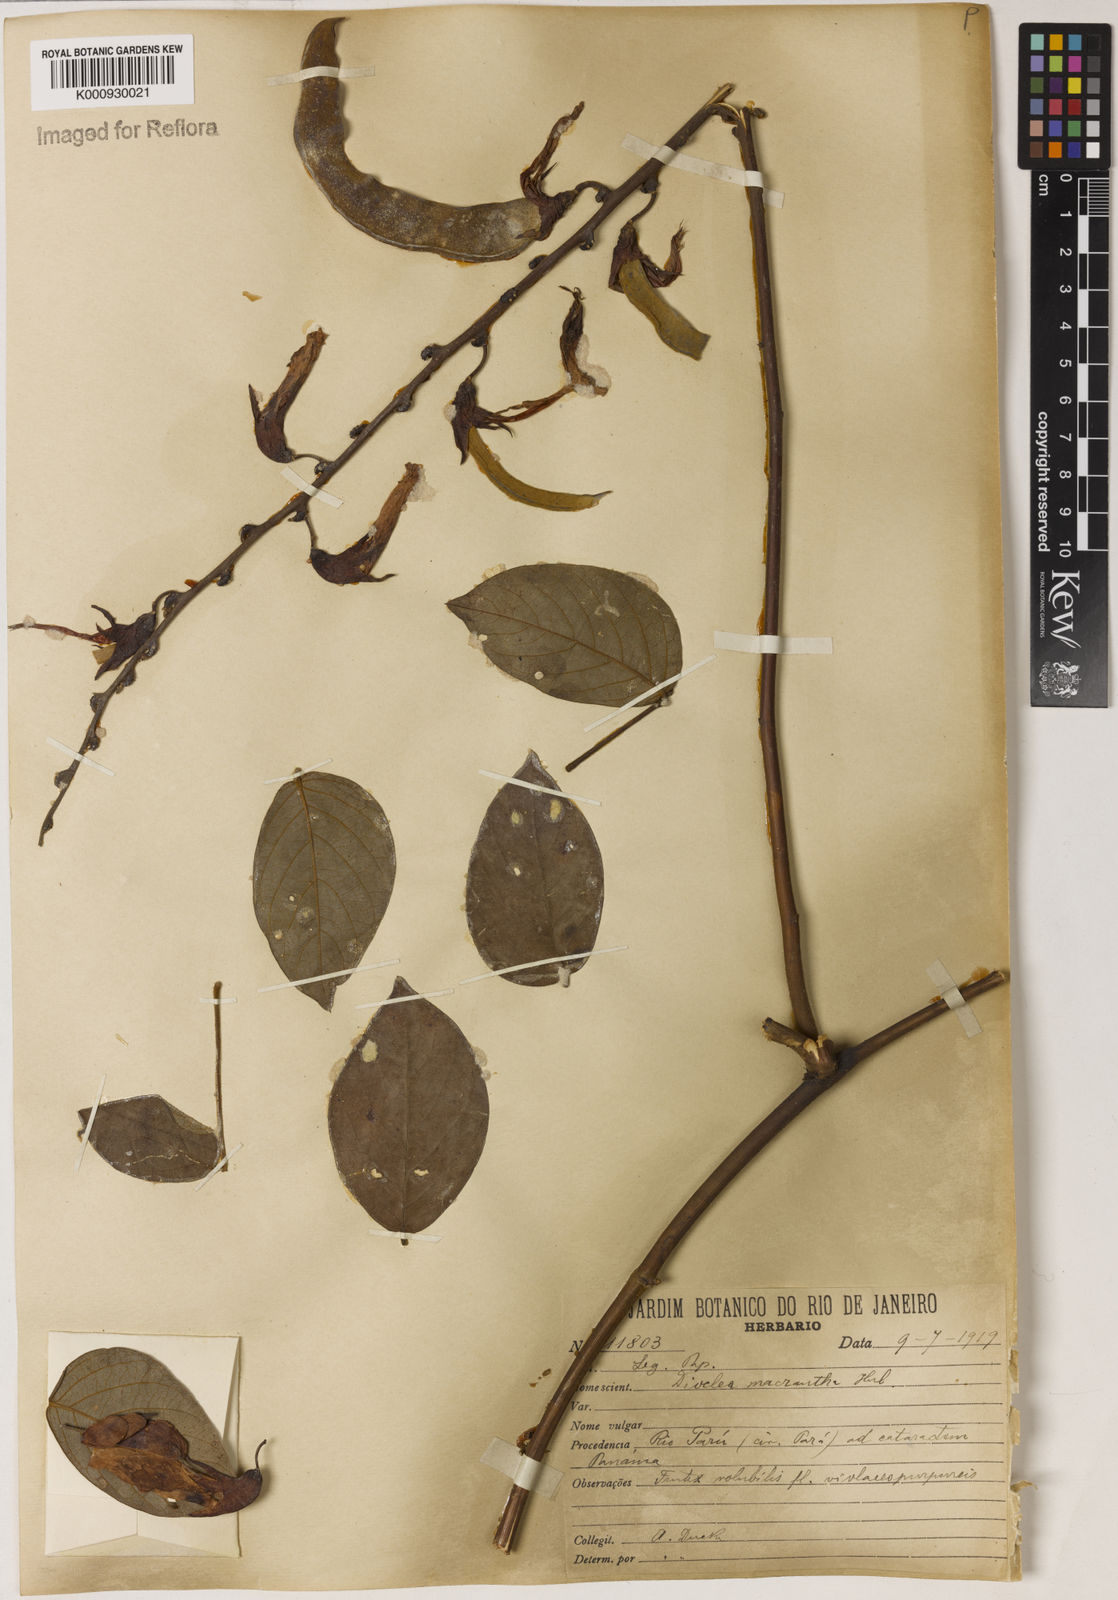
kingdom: Plantae
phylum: Tracheophyta
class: Magnoliopsida
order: Fabales
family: Fabaceae
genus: Dioclea
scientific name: Dioclea macrantha
